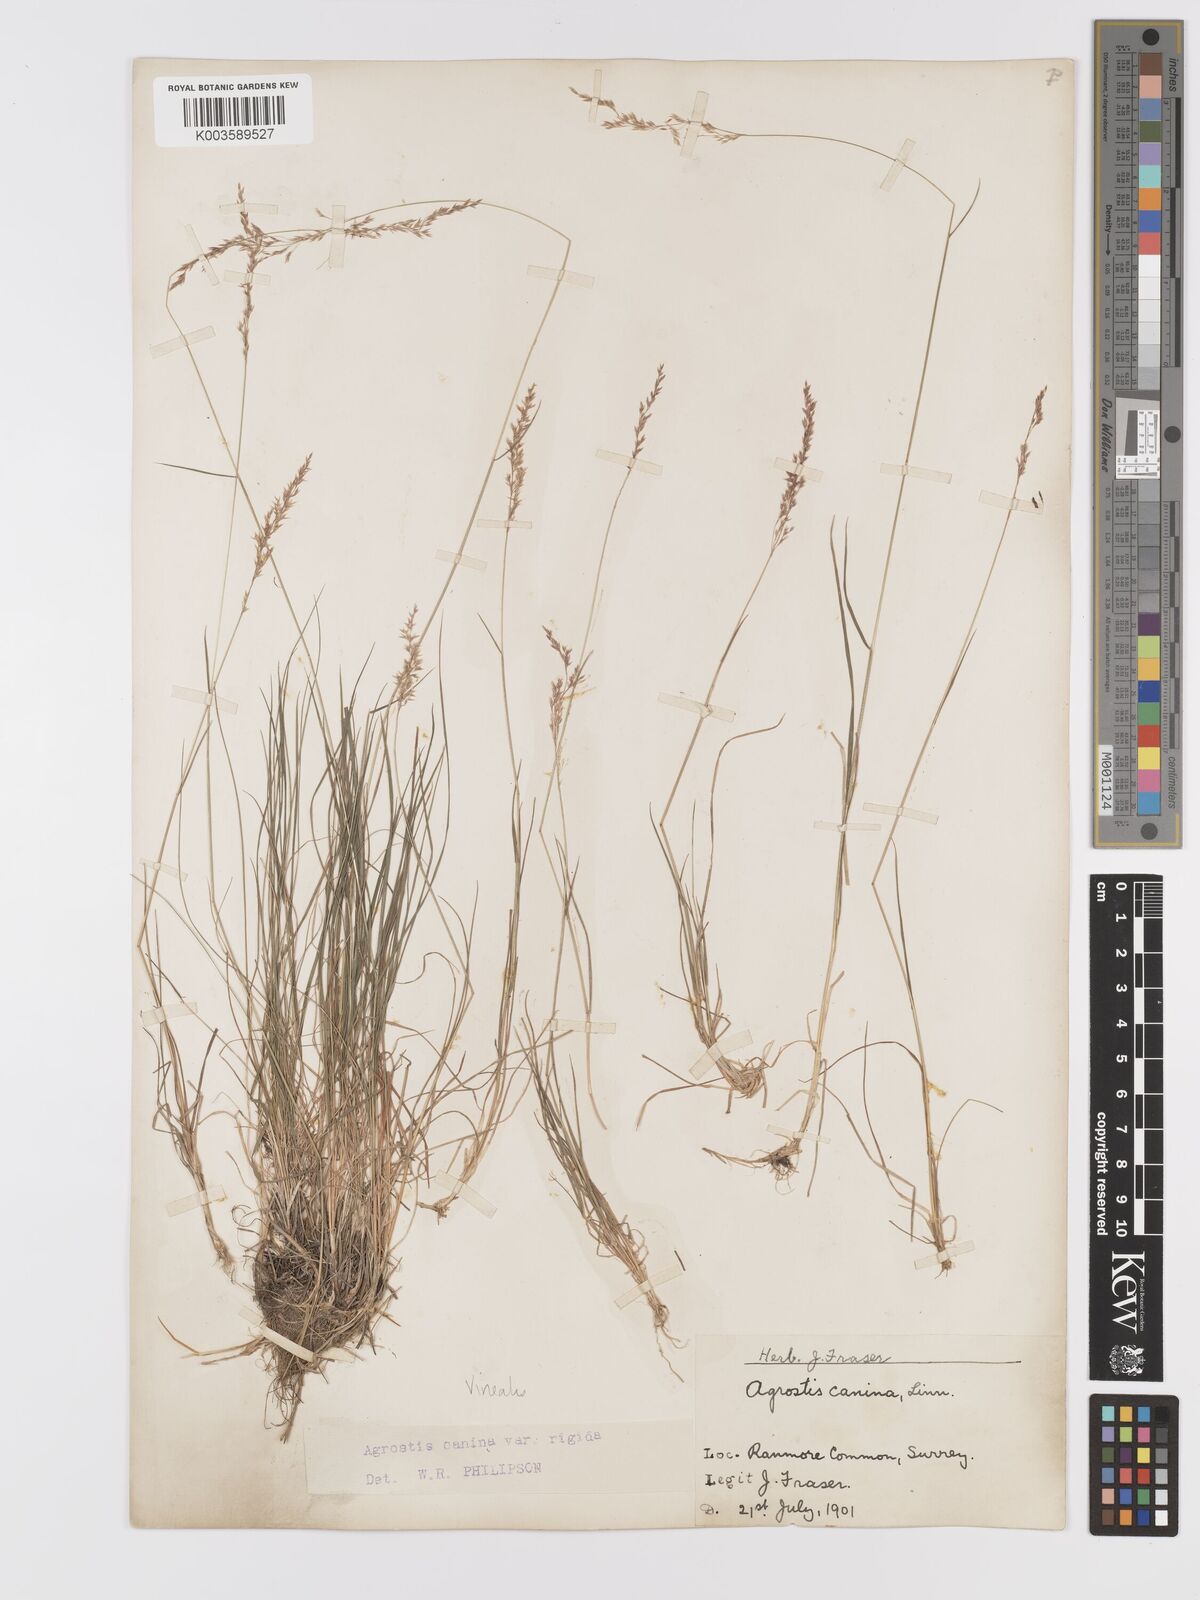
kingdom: Plantae
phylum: Tracheophyta
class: Liliopsida
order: Poales
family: Poaceae
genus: Agrostis
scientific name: Agrostis
